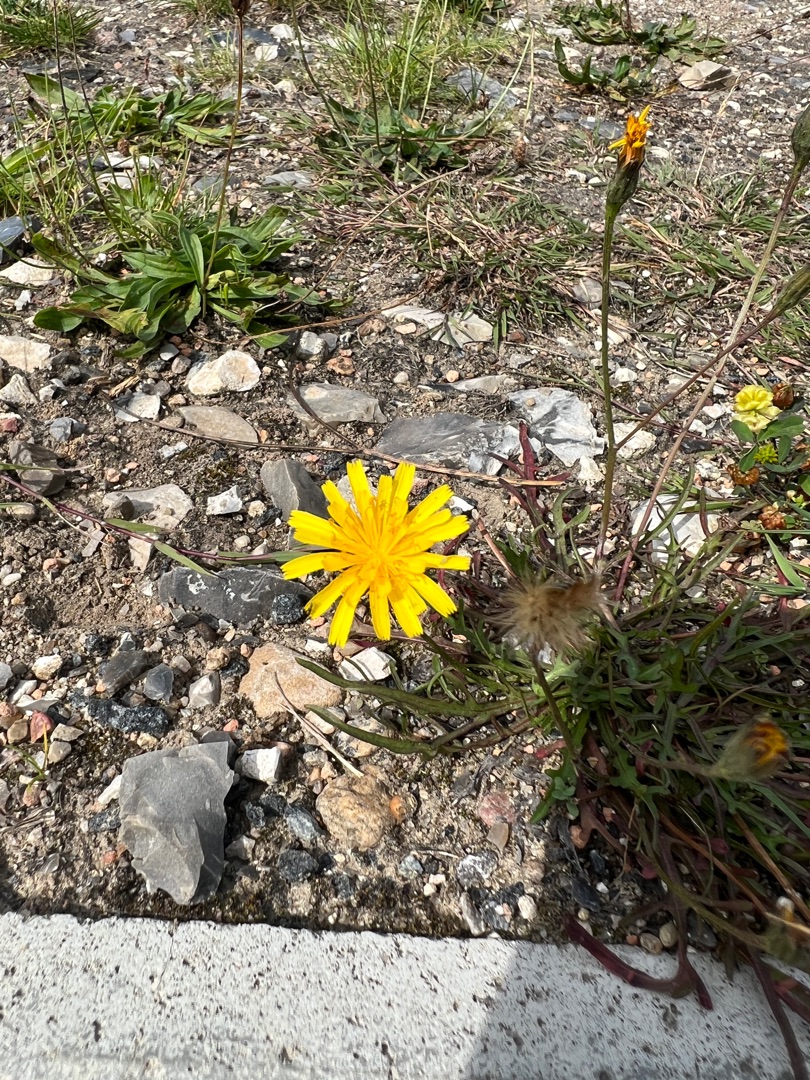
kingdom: Plantae
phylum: Tracheophyta
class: Magnoliopsida
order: Asterales
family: Asteraceae
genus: Scorzoneroides
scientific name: Scorzoneroides autumnalis
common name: Høst-borst
